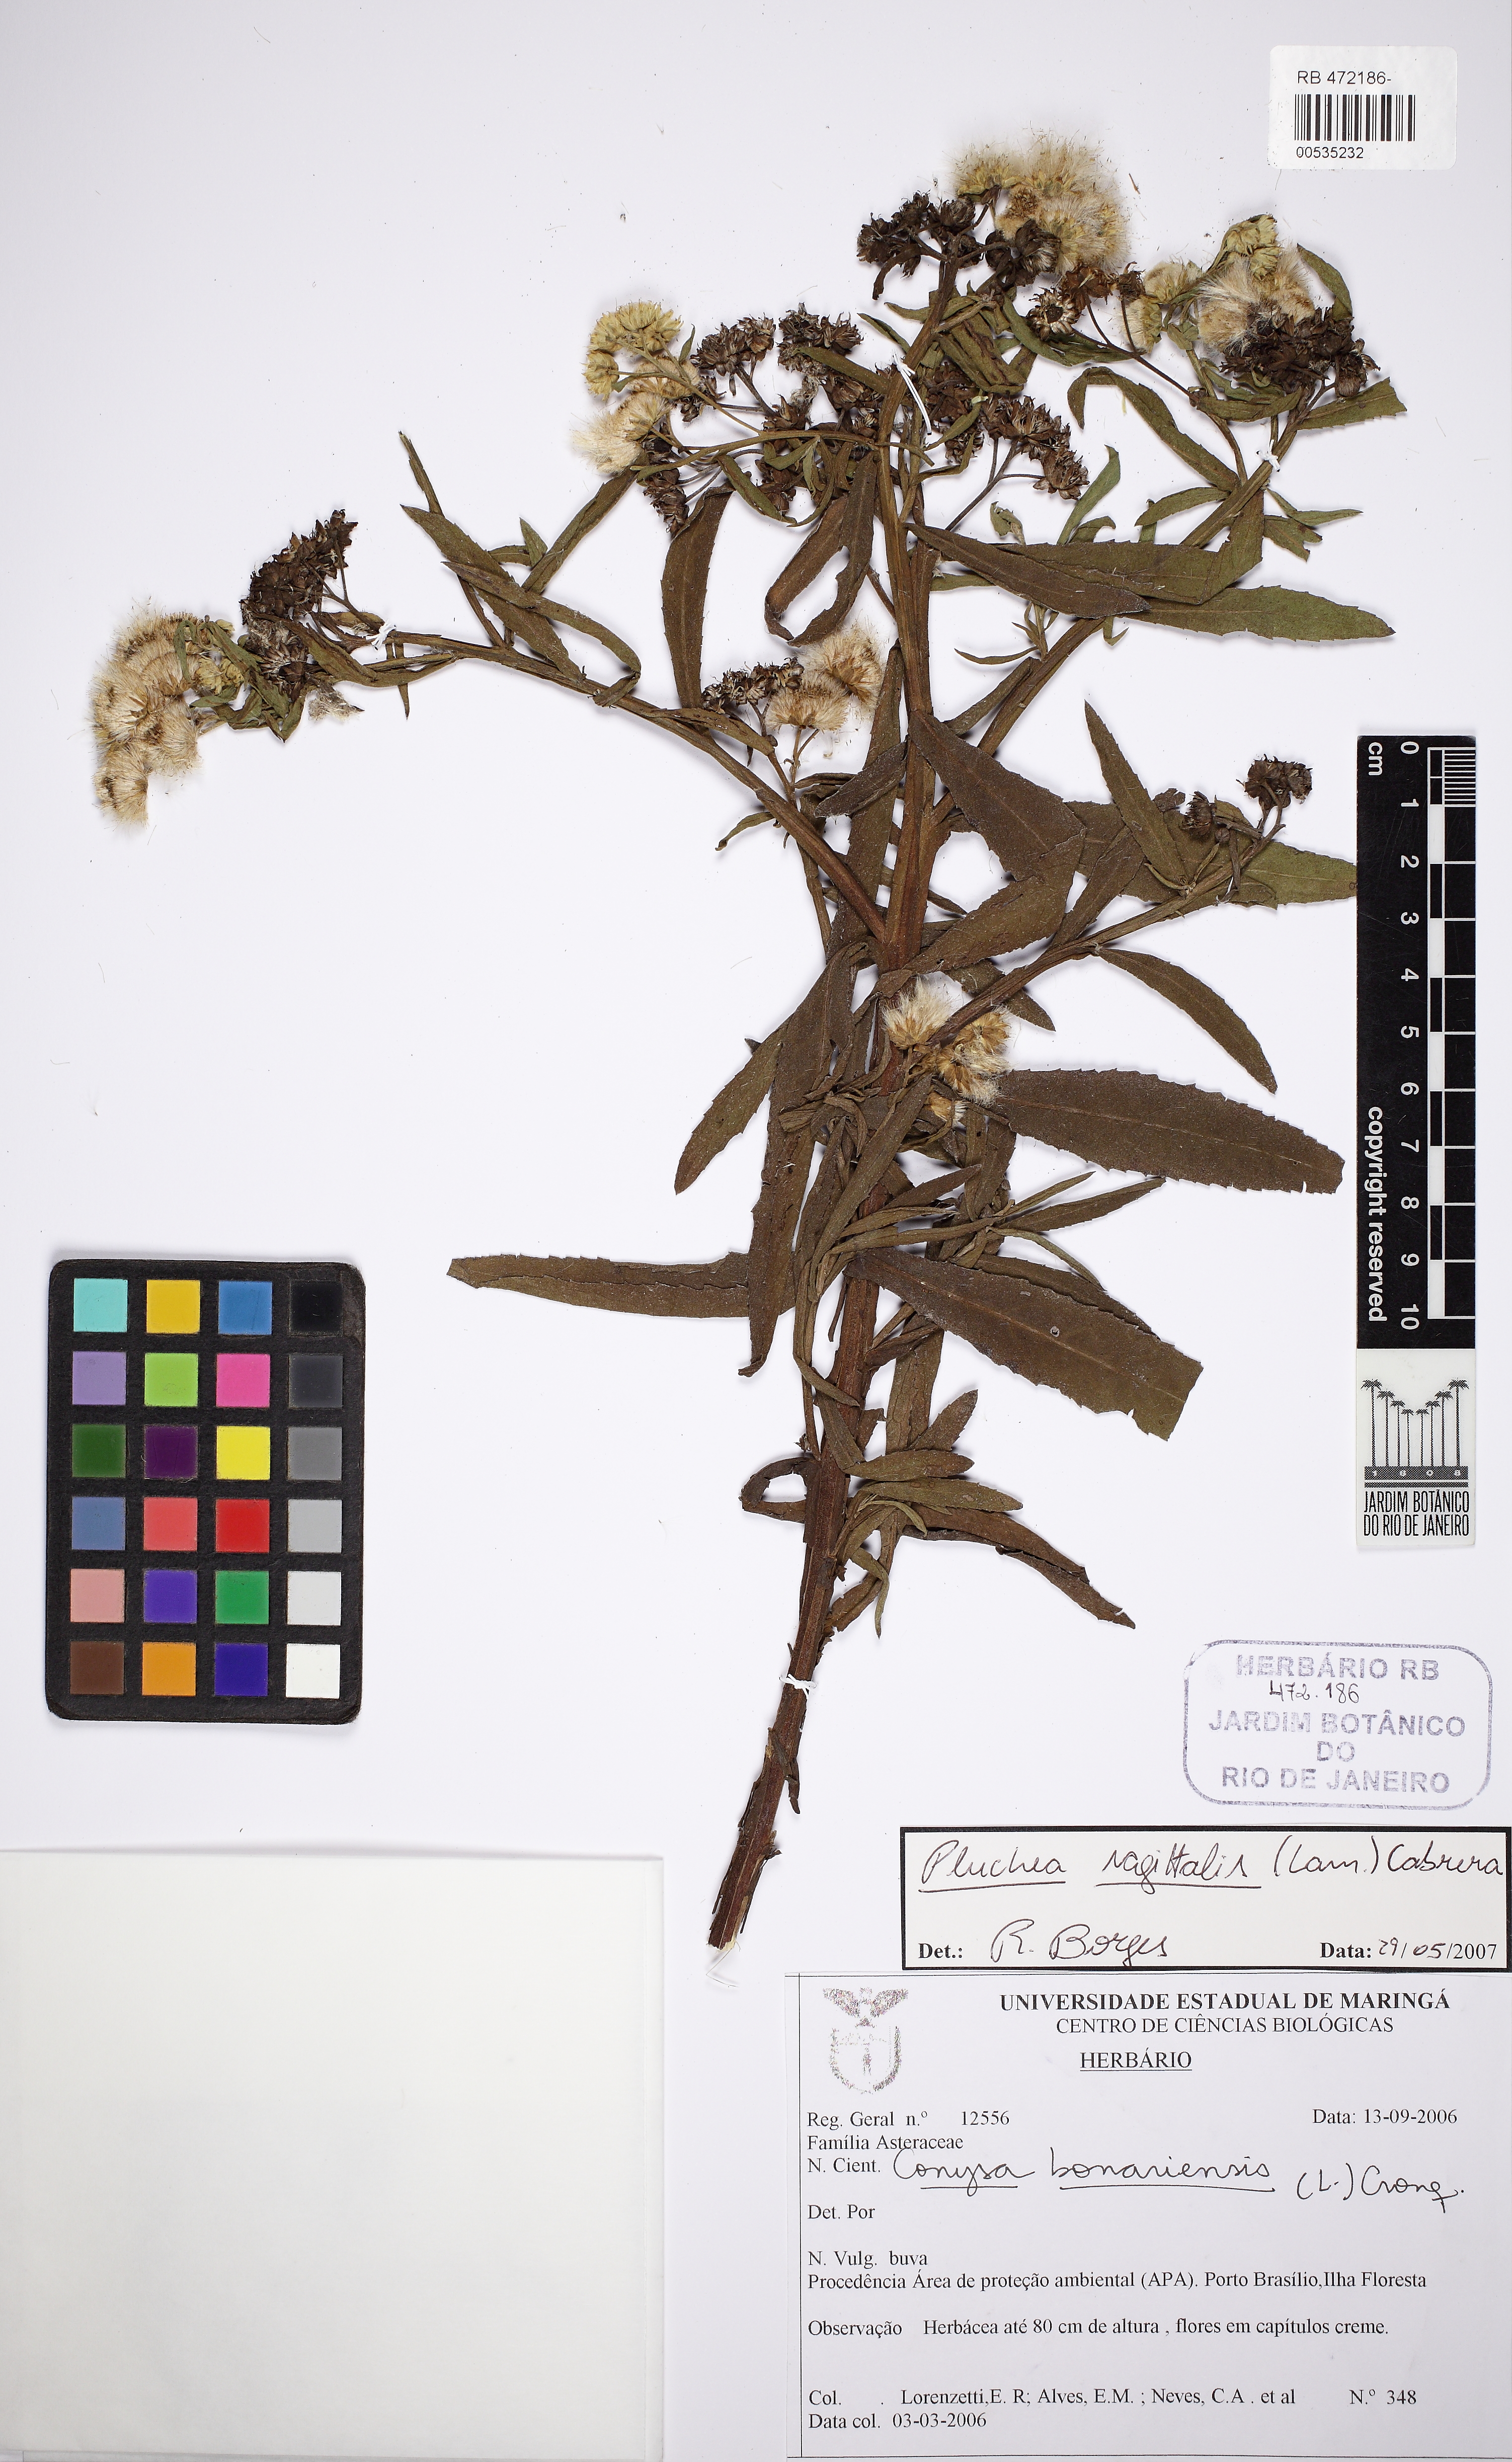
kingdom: Plantae
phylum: Tracheophyta
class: Magnoliopsida
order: Asterales
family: Asteraceae
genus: Pluchea
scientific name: Pluchea sagittalis
